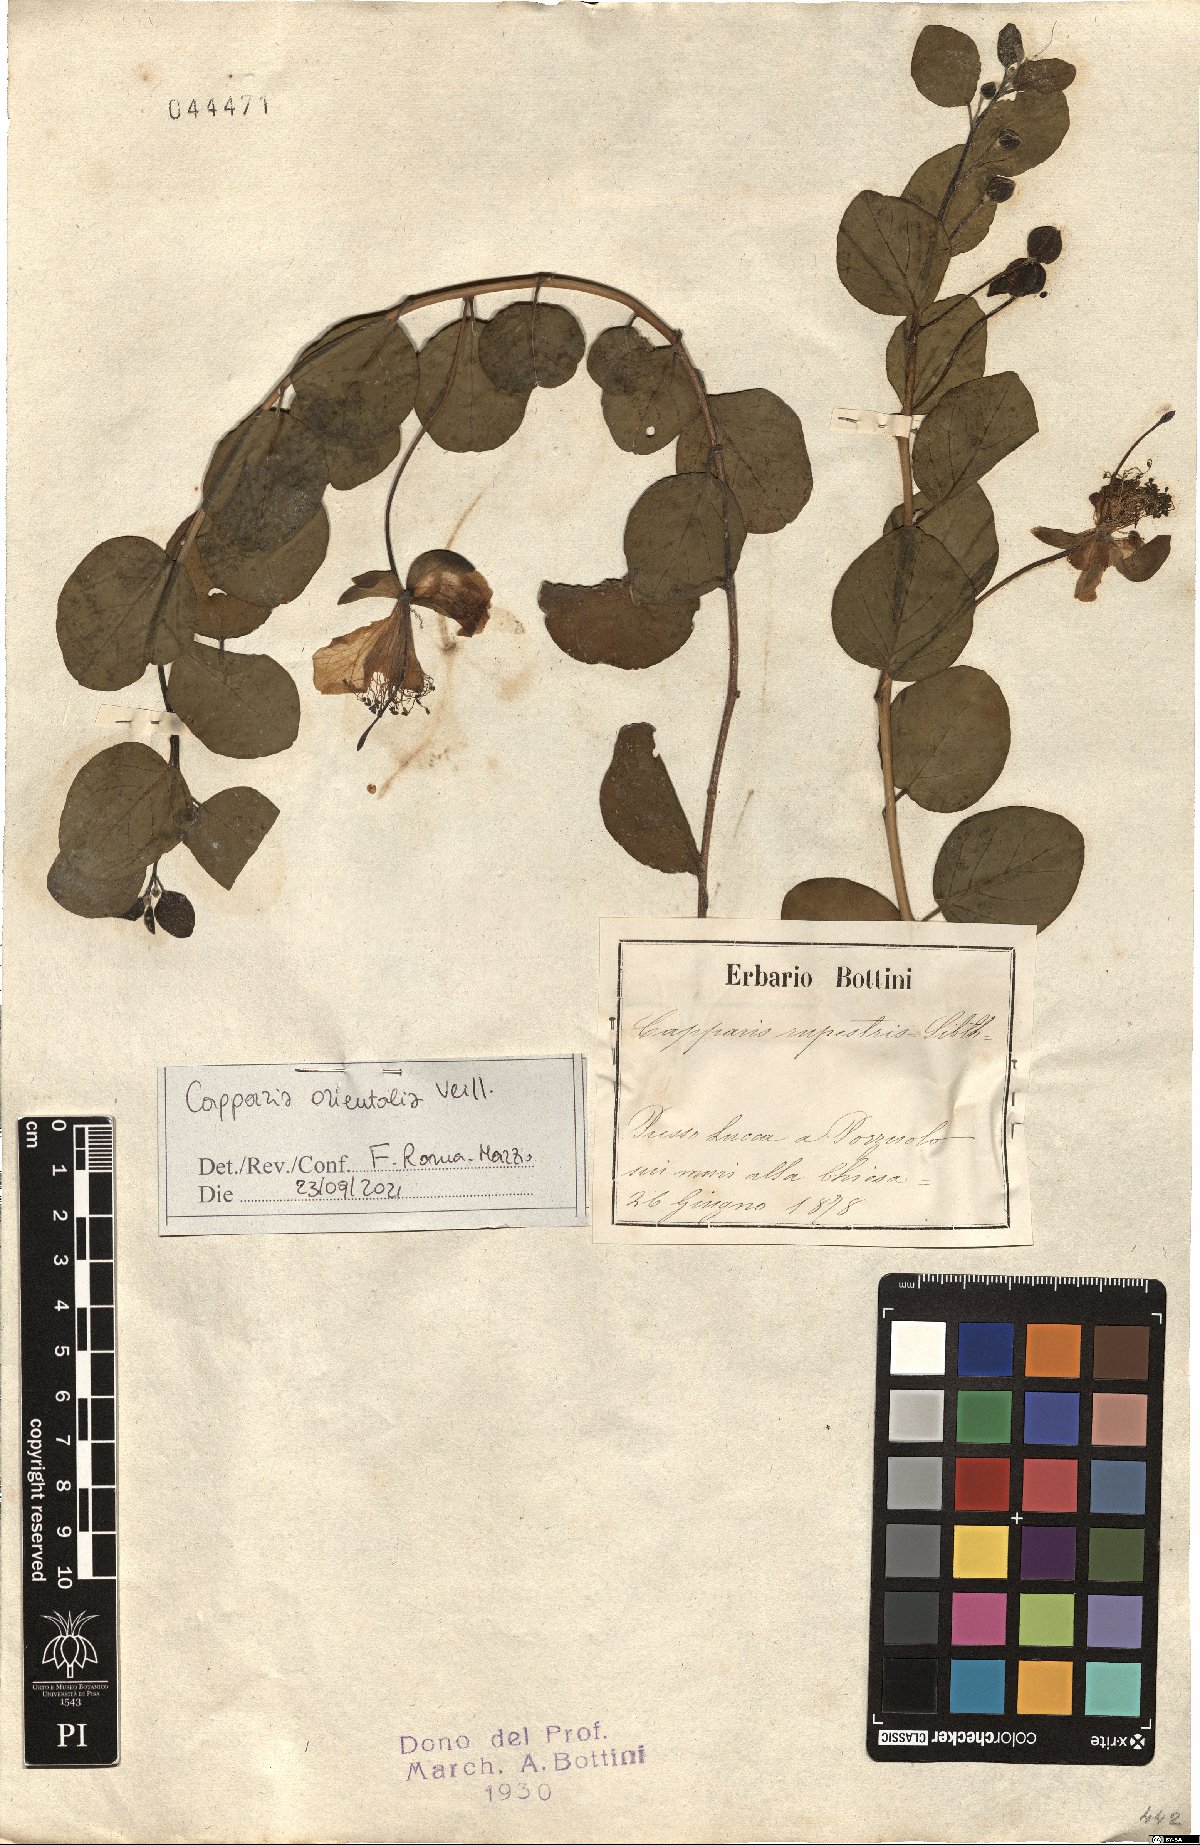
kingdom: Plantae
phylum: Tracheophyta
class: Magnoliopsida
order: Brassicales
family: Capparaceae
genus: Capparis
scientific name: Capparis spinosa
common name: Caper
